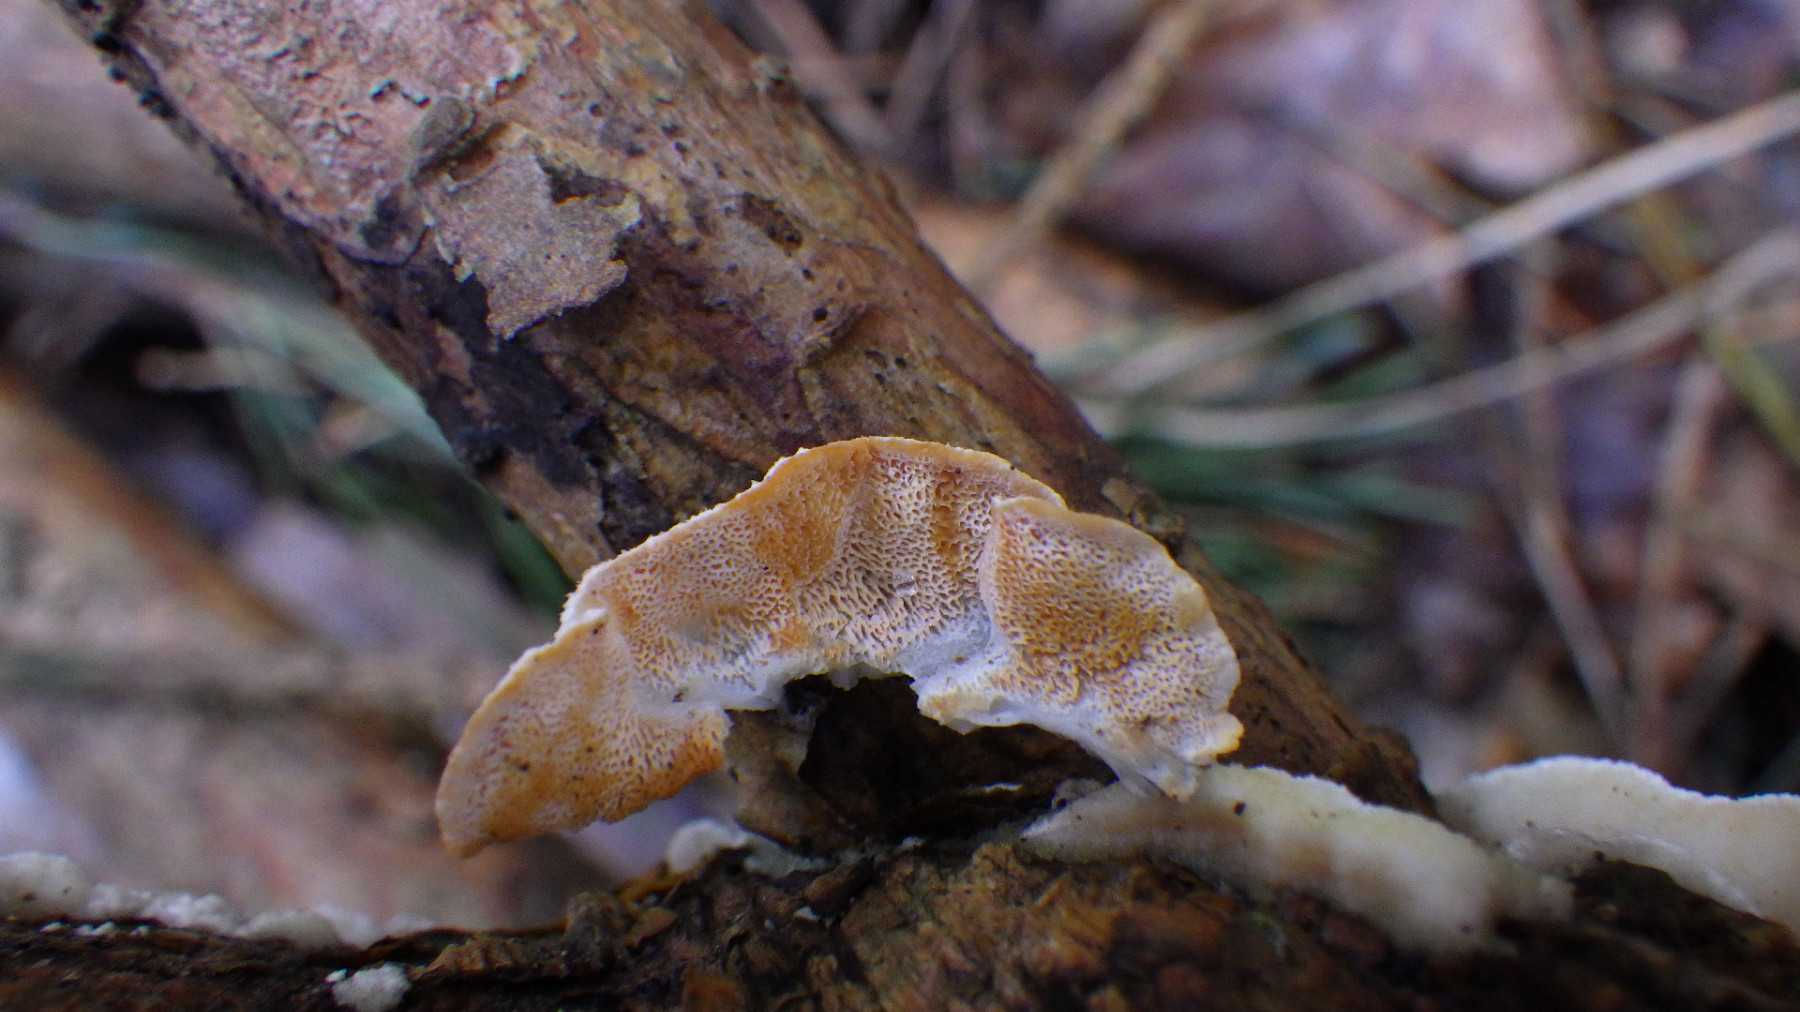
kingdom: Fungi
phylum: Basidiomycota
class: Agaricomycetes
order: Polyporales
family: Incrustoporiaceae
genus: Skeletocutis
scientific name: Skeletocutis amorpha
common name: orange krystalporesvamp
